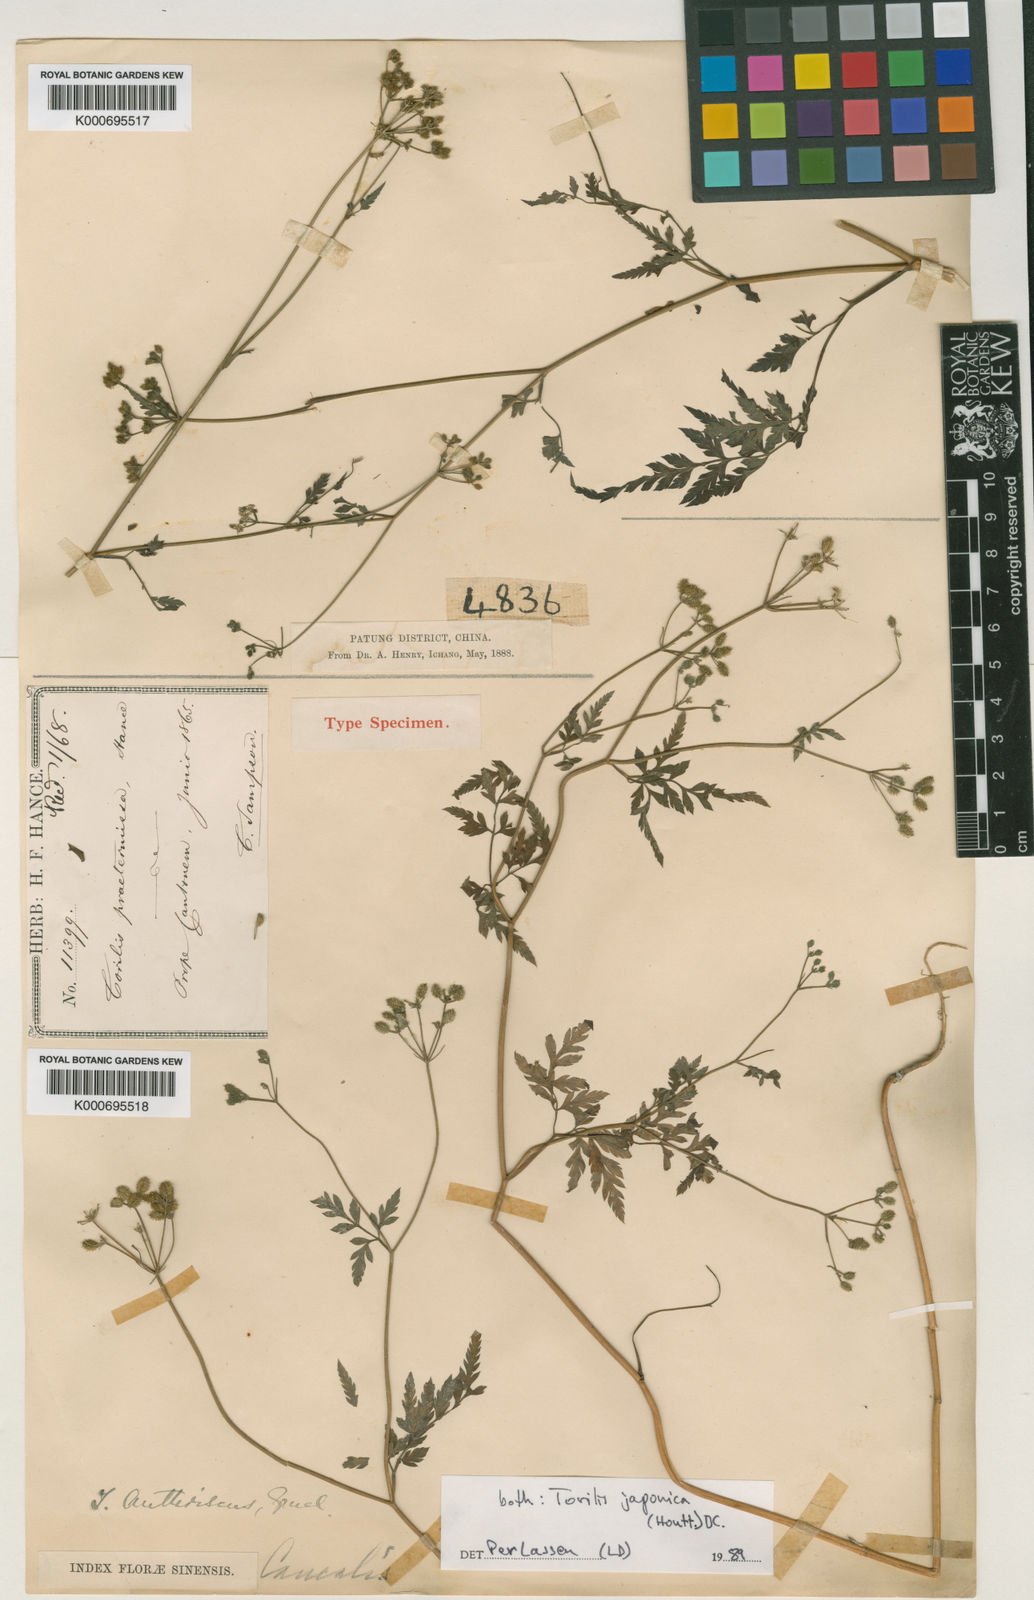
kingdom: Plantae
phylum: Tracheophyta
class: Magnoliopsida
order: Apiales
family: Apiaceae
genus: Torilis
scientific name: Torilis scabra
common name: Rough hedgeparsley
